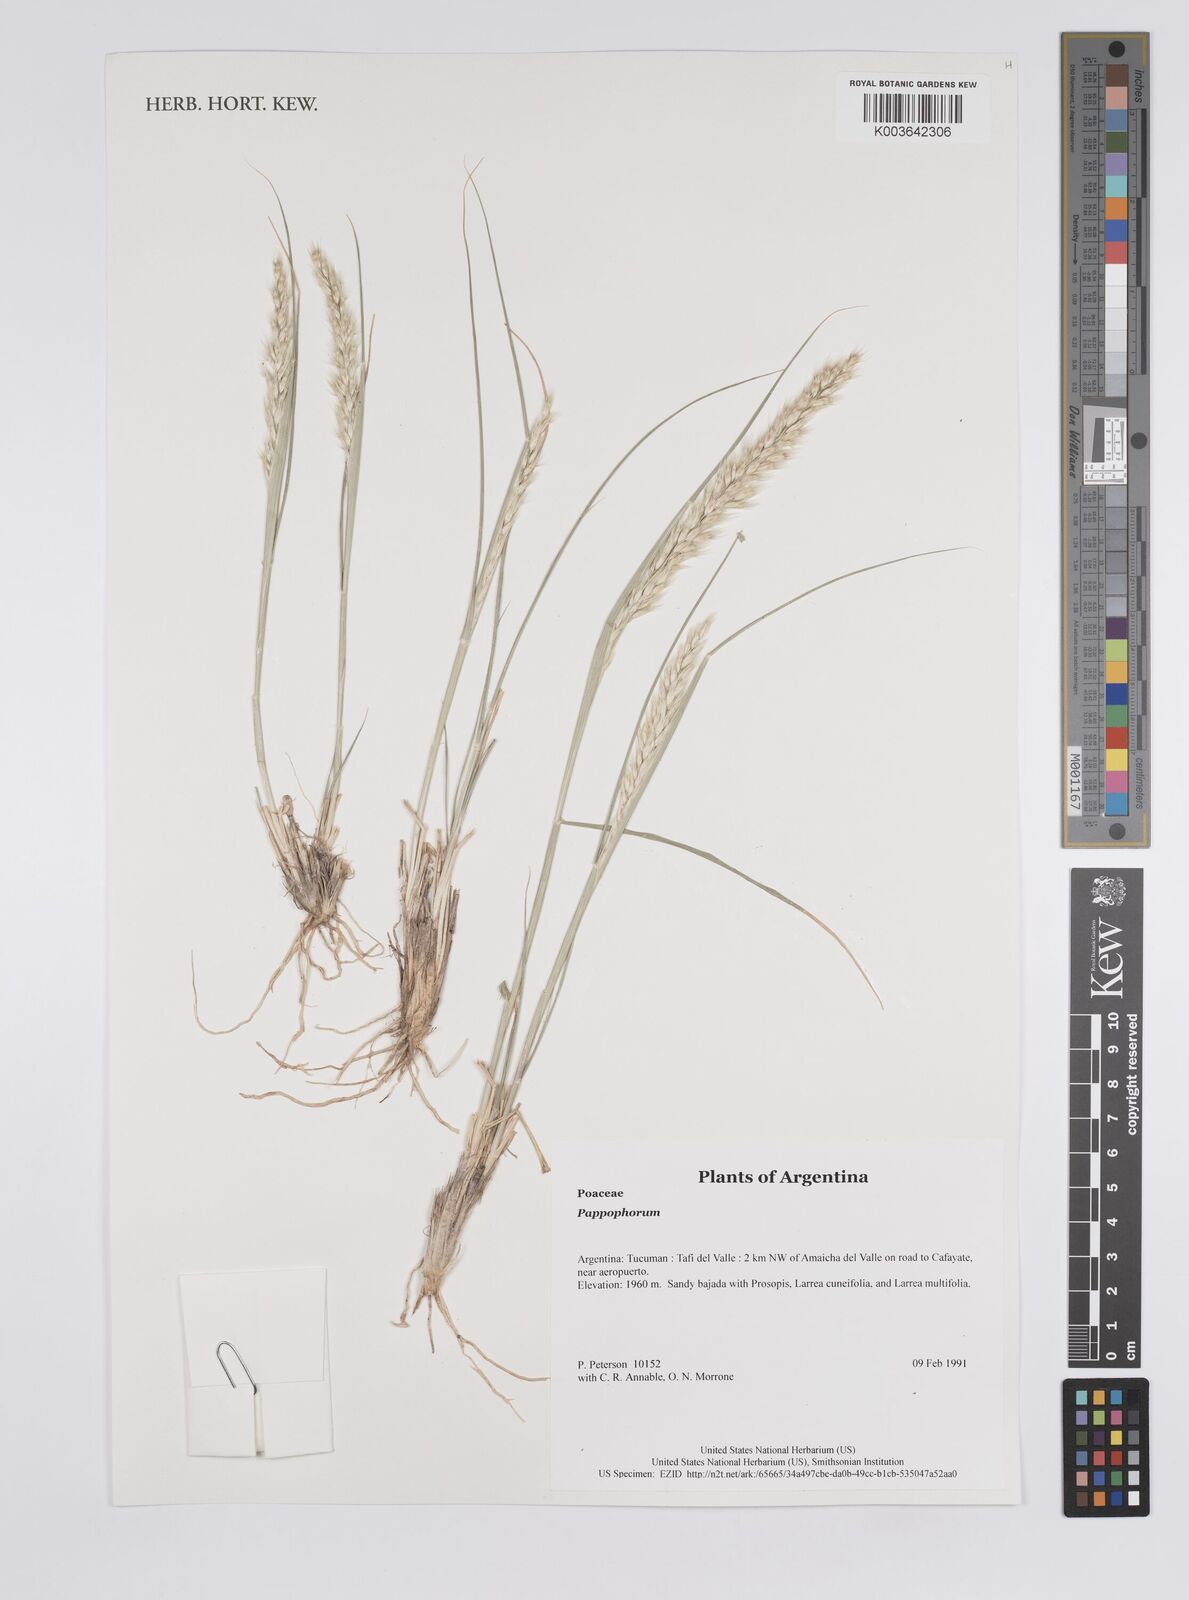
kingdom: Plantae
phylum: Tracheophyta
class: Liliopsida
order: Poales
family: Poaceae
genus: Pappophorum
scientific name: Pappophorum
